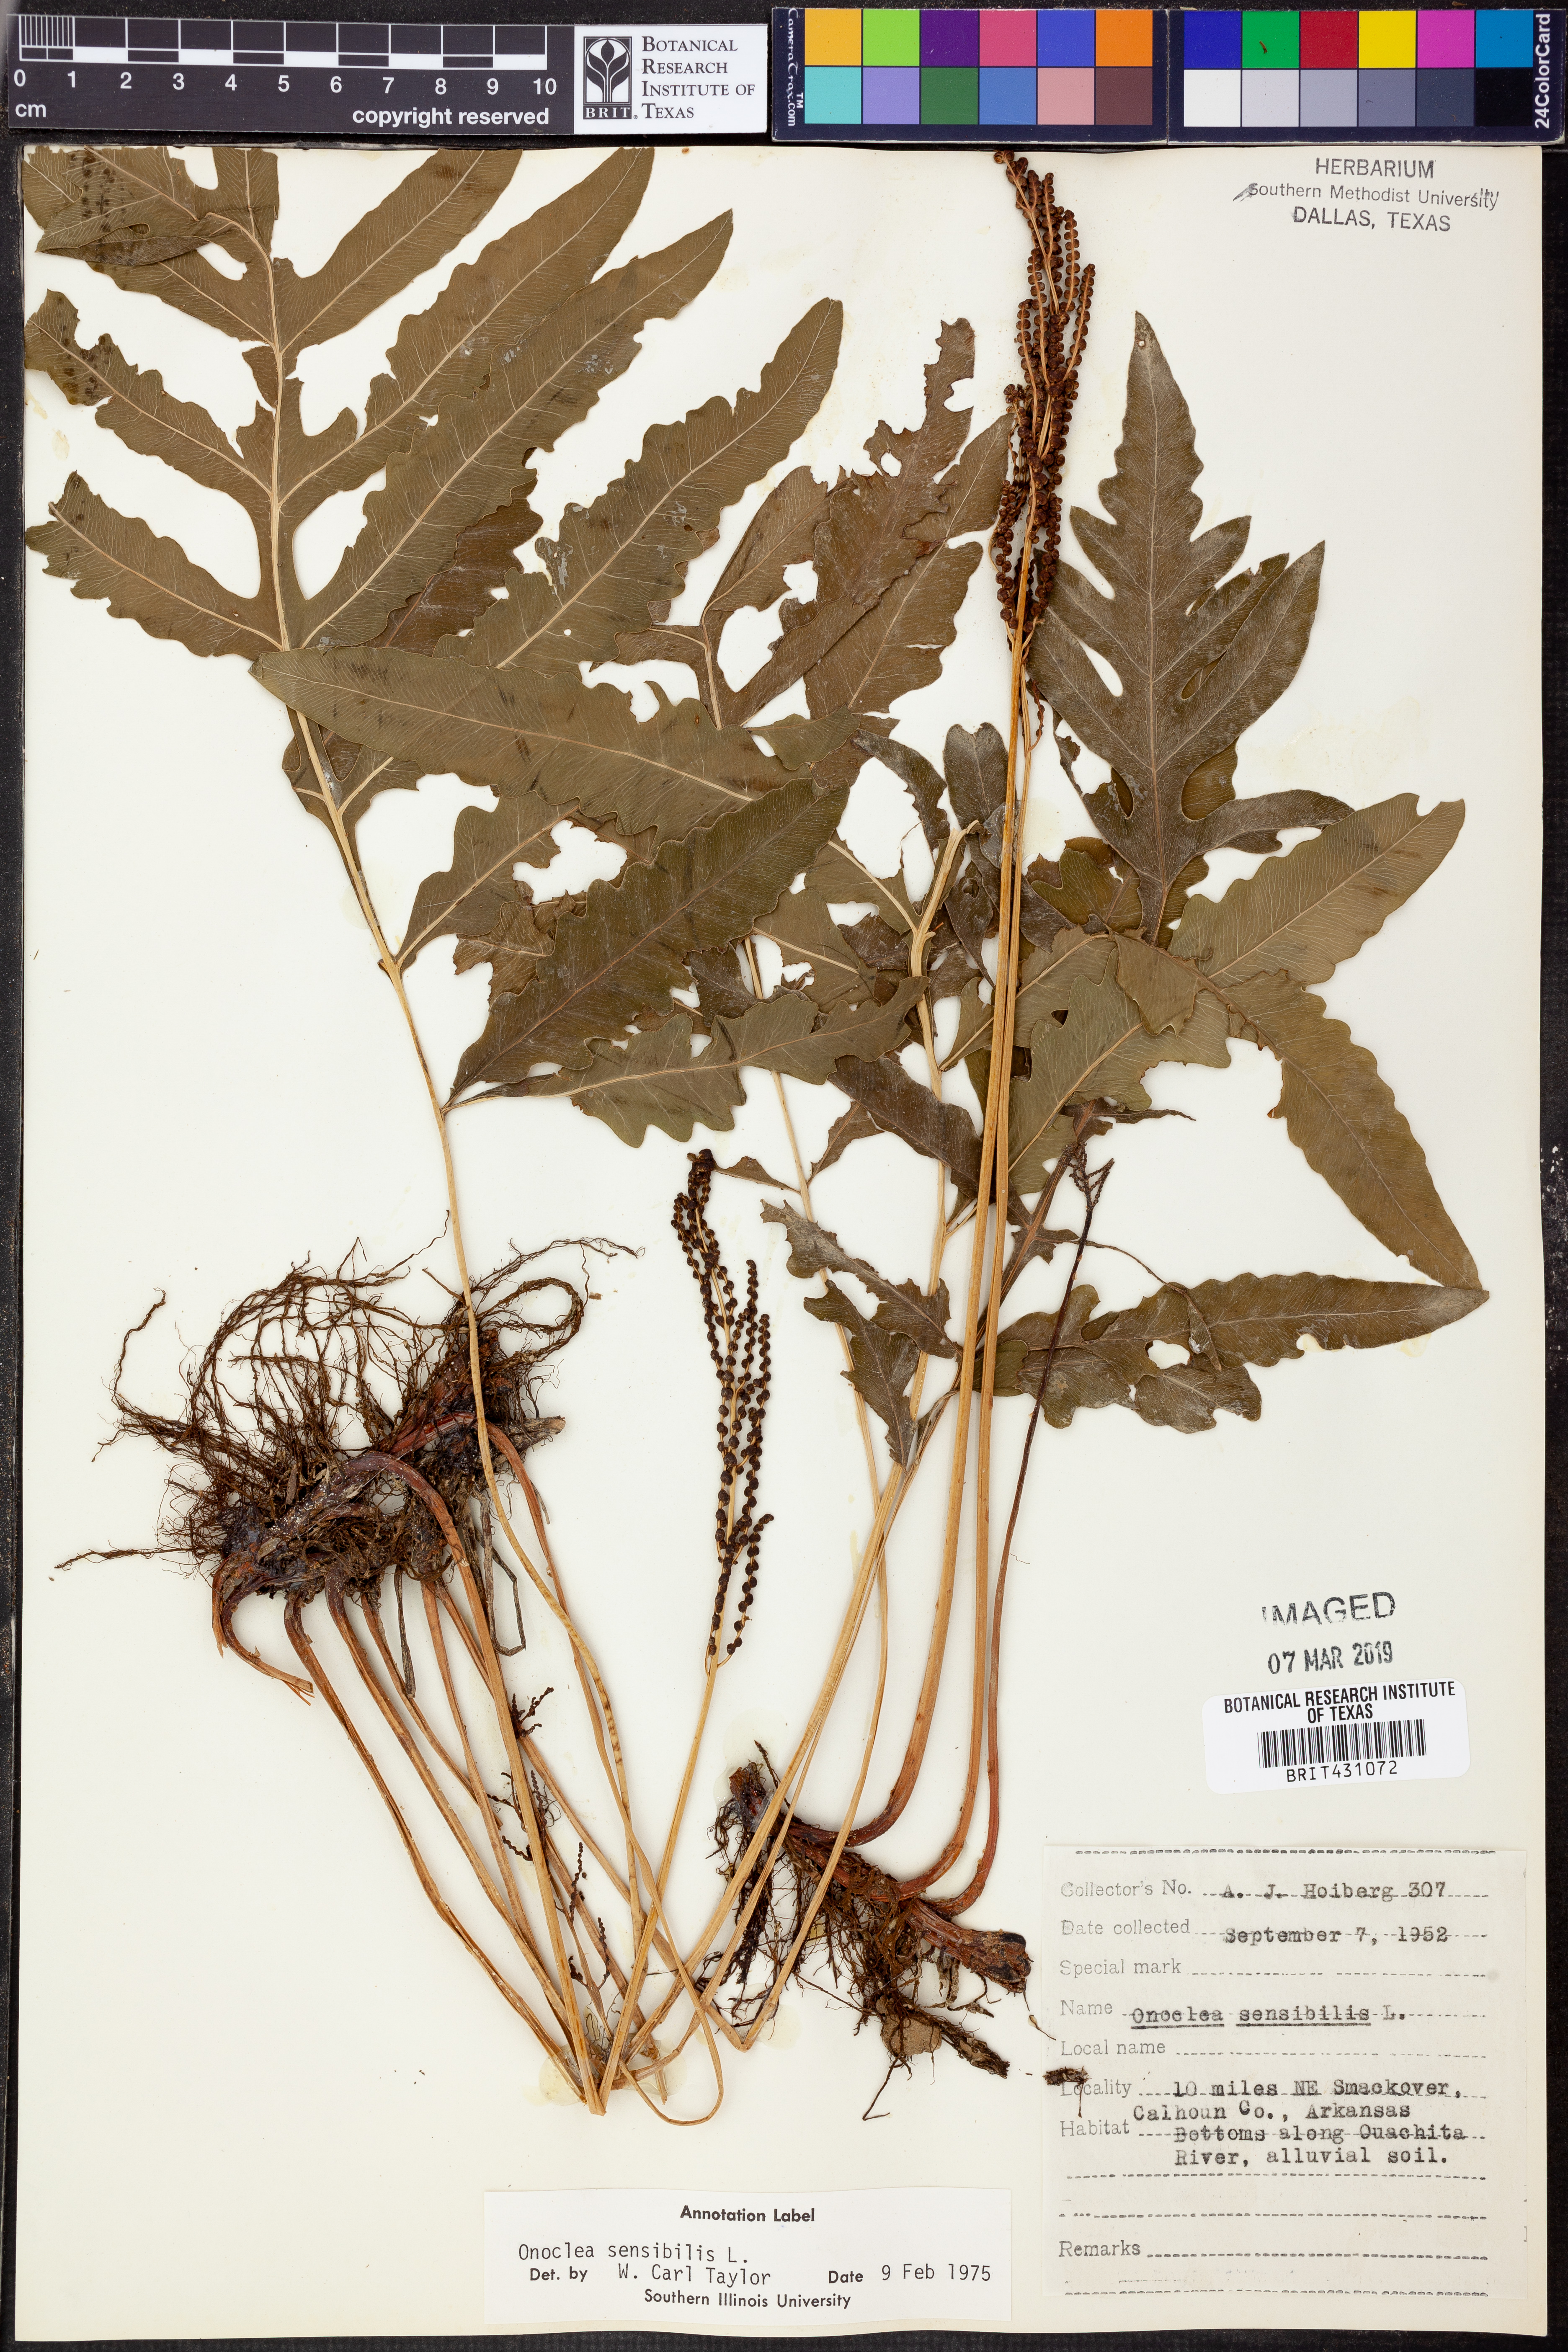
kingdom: Plantae
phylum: Tracheophyta
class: Polypodiopsida
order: Polypodiales
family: Onocleaceae
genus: Onoclea
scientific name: Onoclea sensibilis
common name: Sensitive fern
